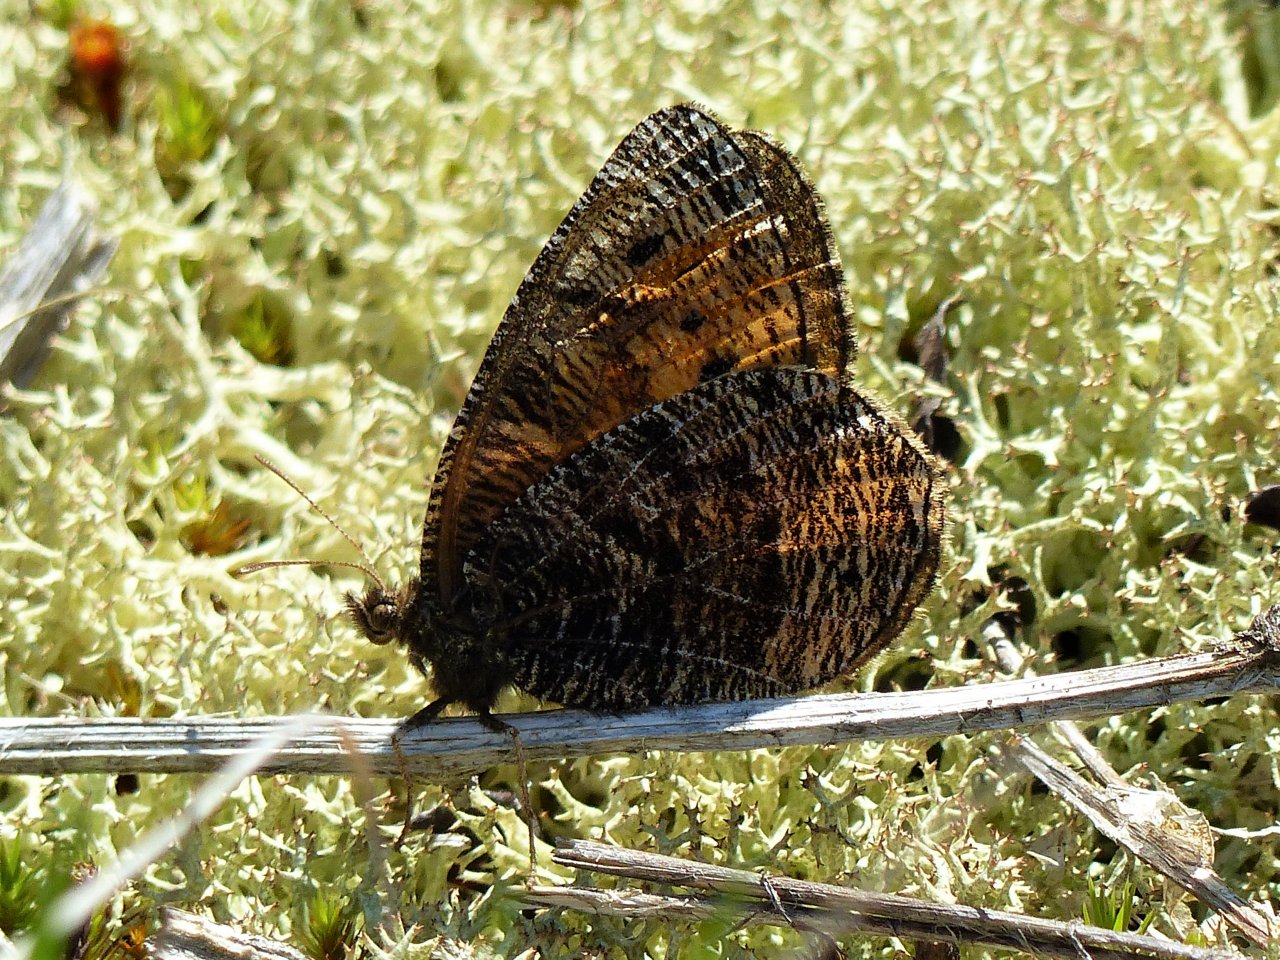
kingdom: Animalia
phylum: Arthropoda
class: Insecta
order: Lepidoptera
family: Nymphalidae
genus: Oeneis
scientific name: Oeneis chryxus
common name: Chryxus Arctic
